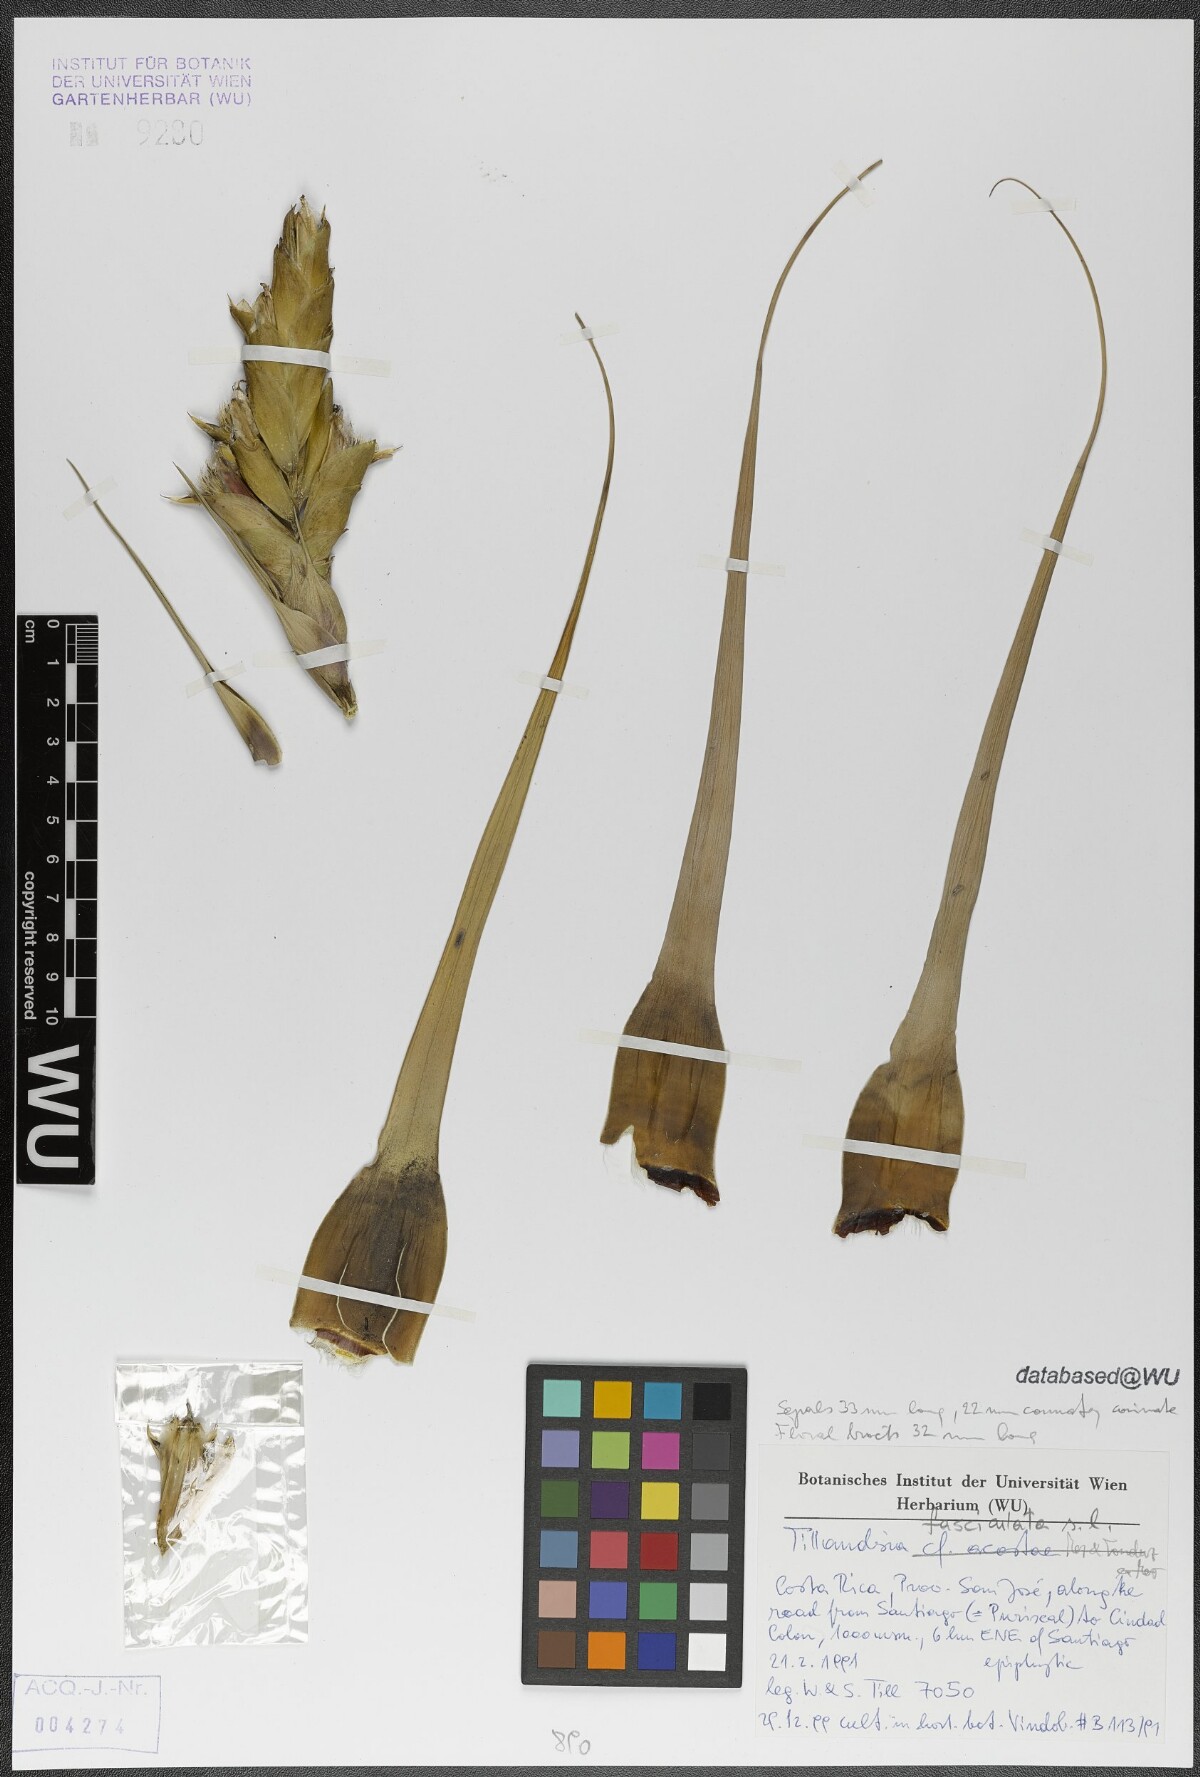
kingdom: Plantae
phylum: Tracheophyta
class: Liliopsida
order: Poales
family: Bromeliaceae
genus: Tillandsia
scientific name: Tillandsia fasciculata
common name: Giant airplant
